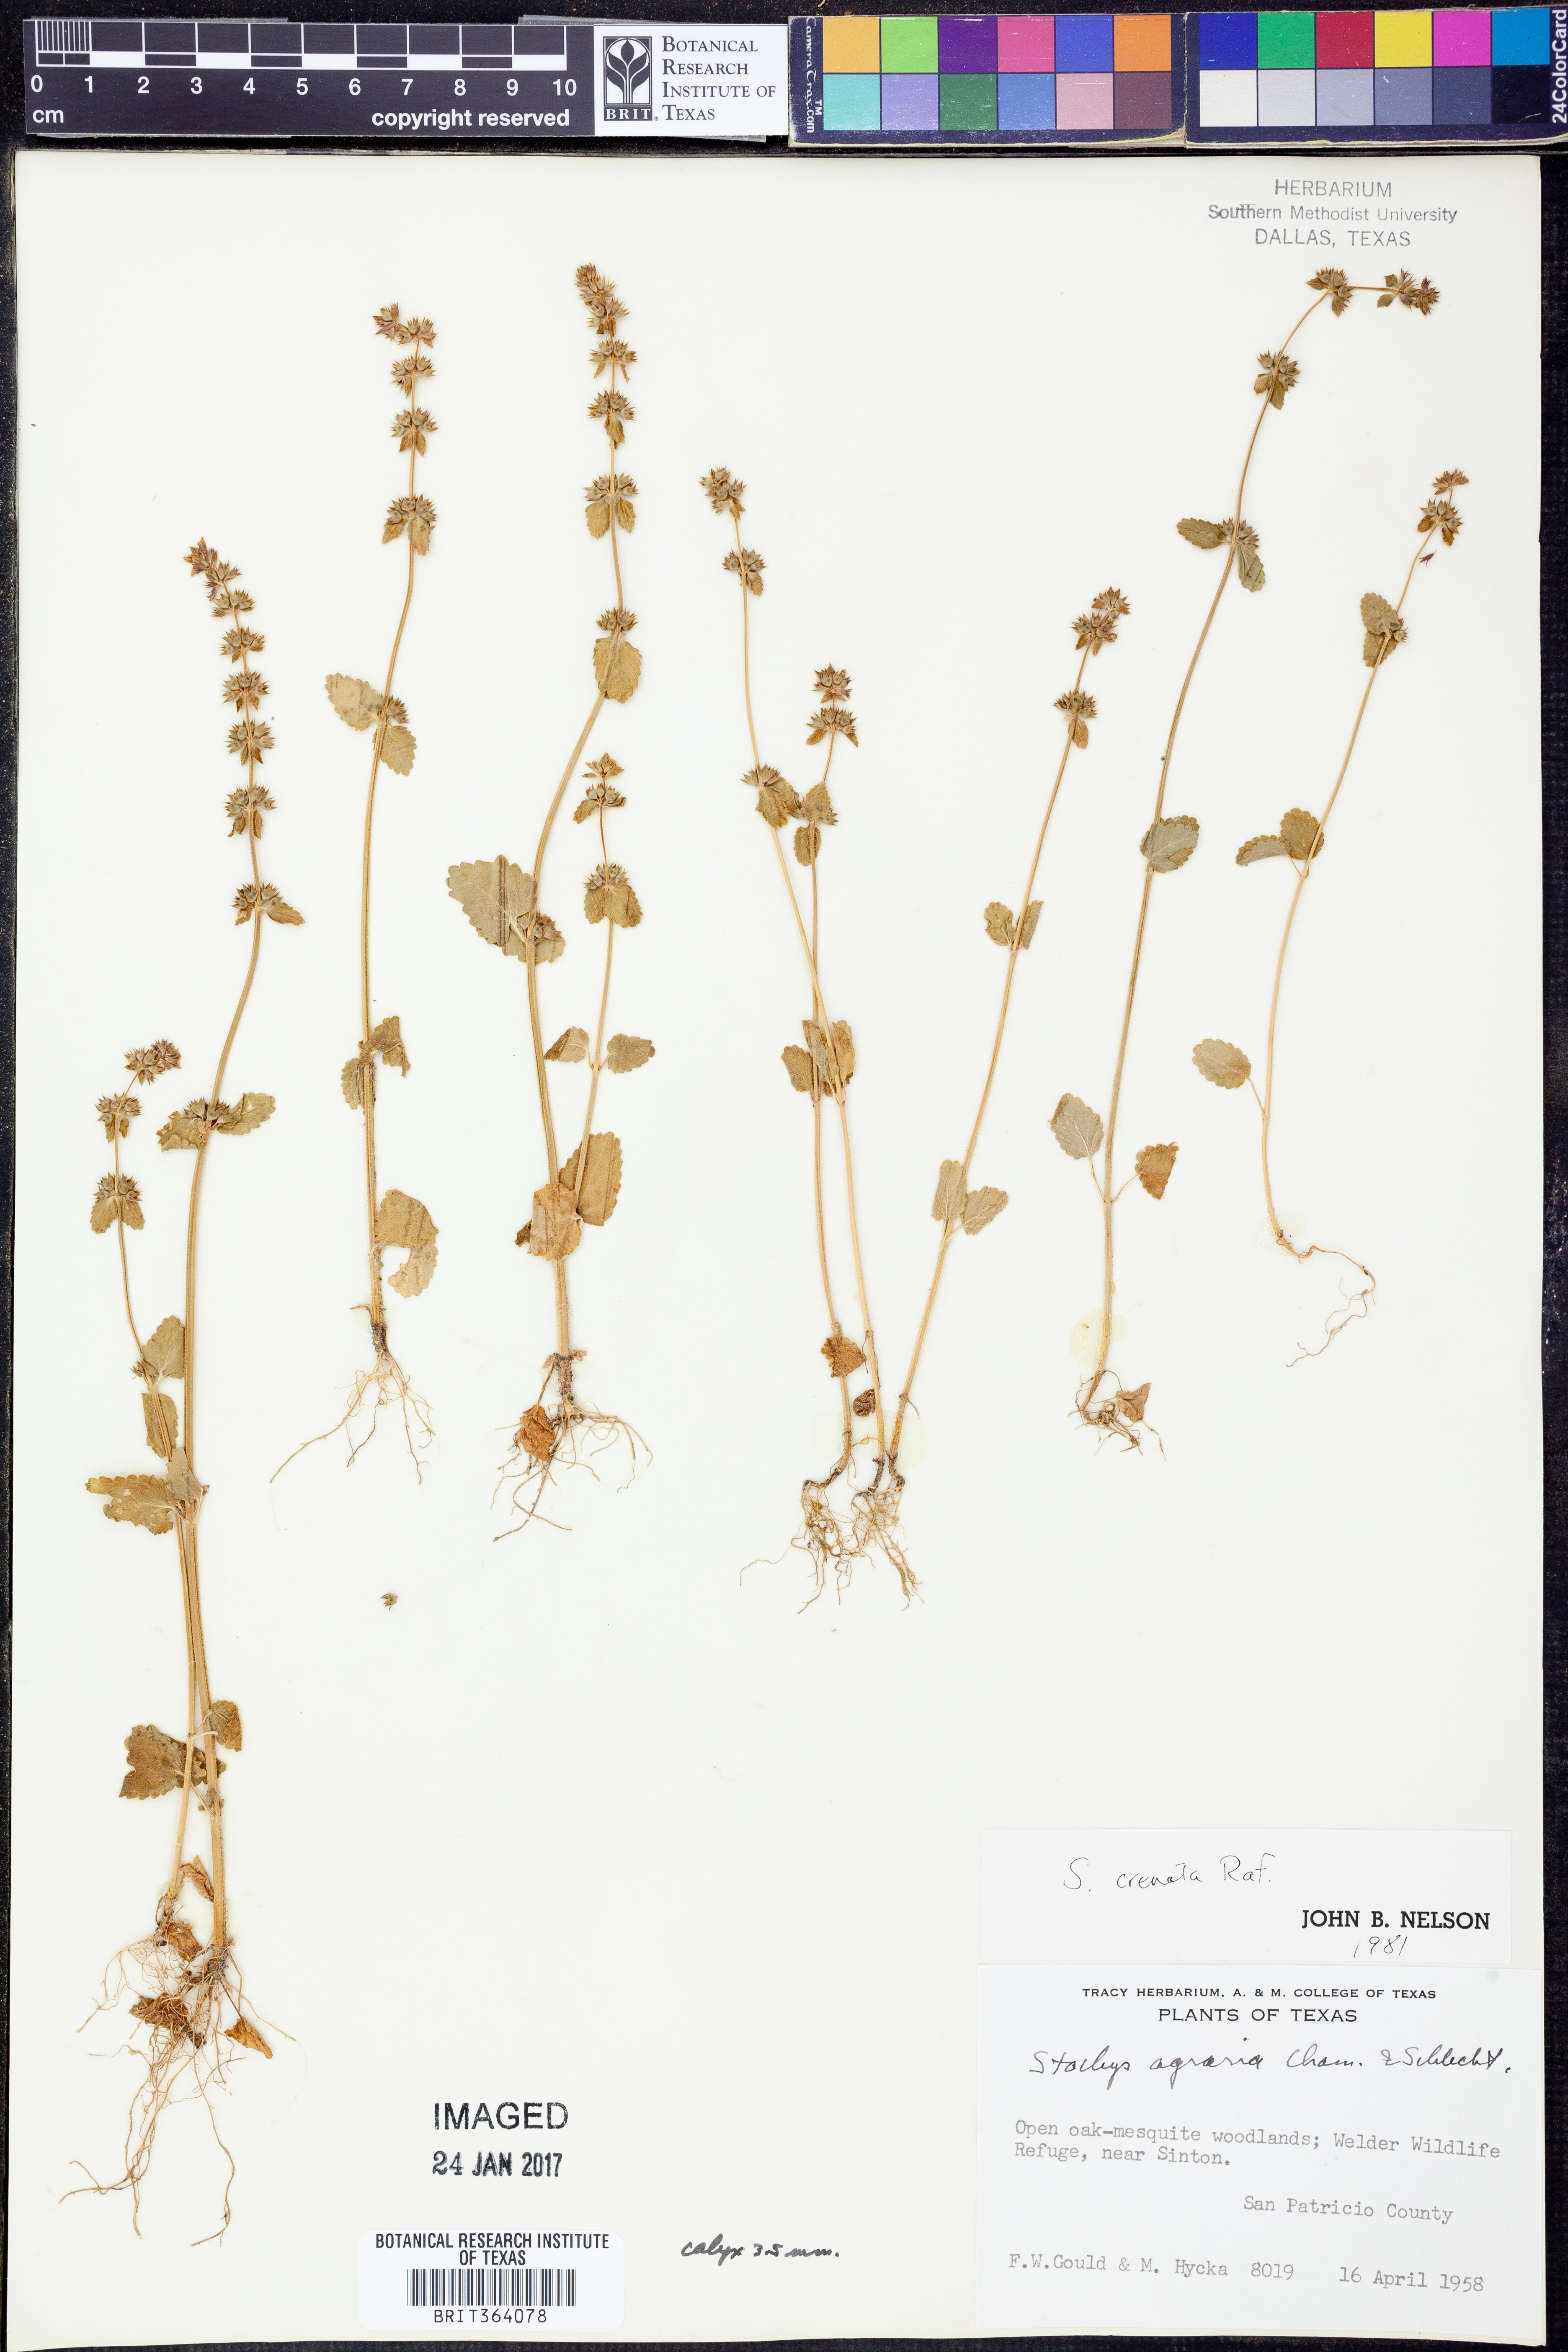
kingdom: Plantae
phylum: Tracheophyta
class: Magnoliopsida
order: Lamiales
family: Lamiaceae
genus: Stachys
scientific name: Stachys agraria
